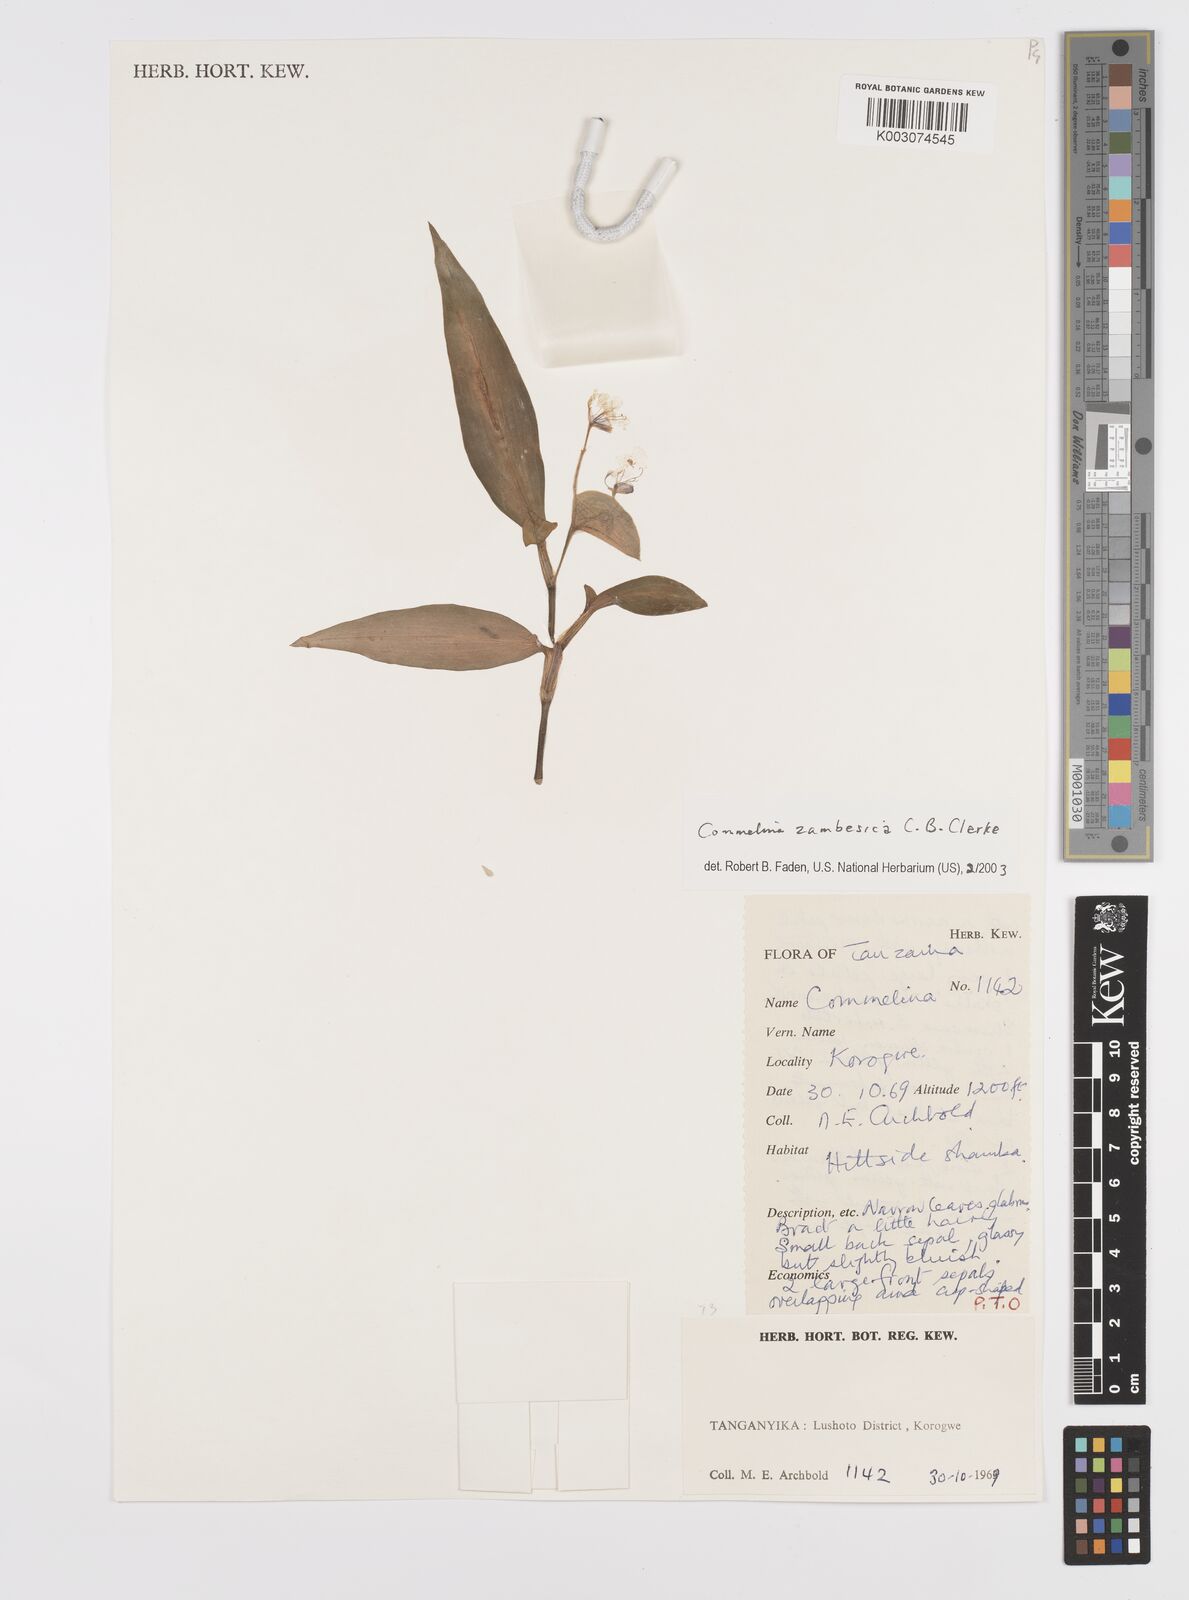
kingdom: Plantae
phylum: Tracheophyta
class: Liliopsida
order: Commelinales
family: Commelinaceae
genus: Commelina
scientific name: Commelina zambesica
